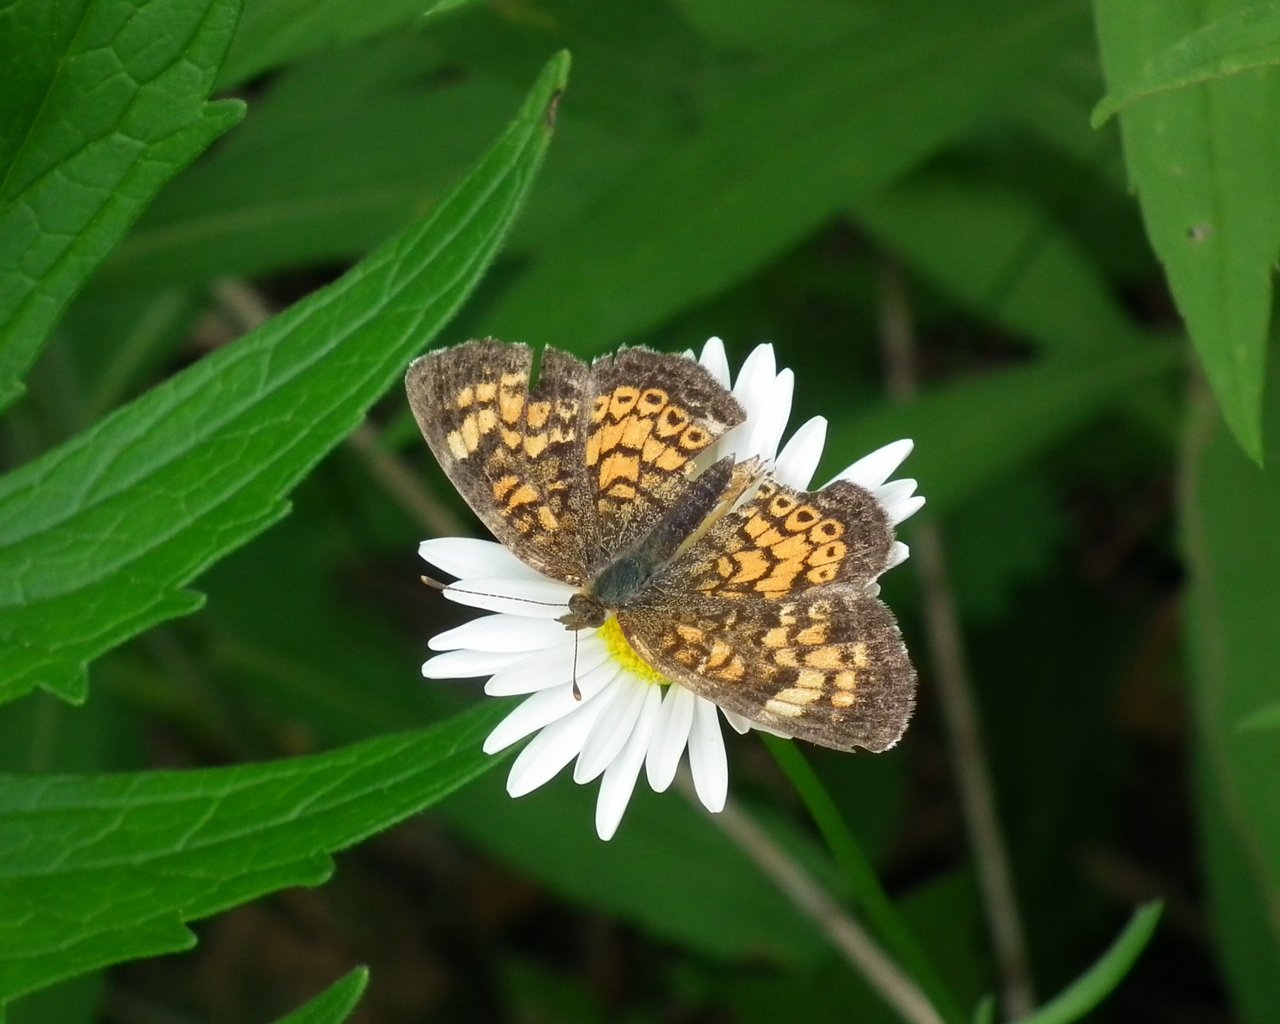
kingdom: Animalia
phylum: Arthropoda
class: Insecta
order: Lepidoptera
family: Nymphalidae
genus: Phyciodes
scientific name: Phyciodes tharos
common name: Northern Crescent
